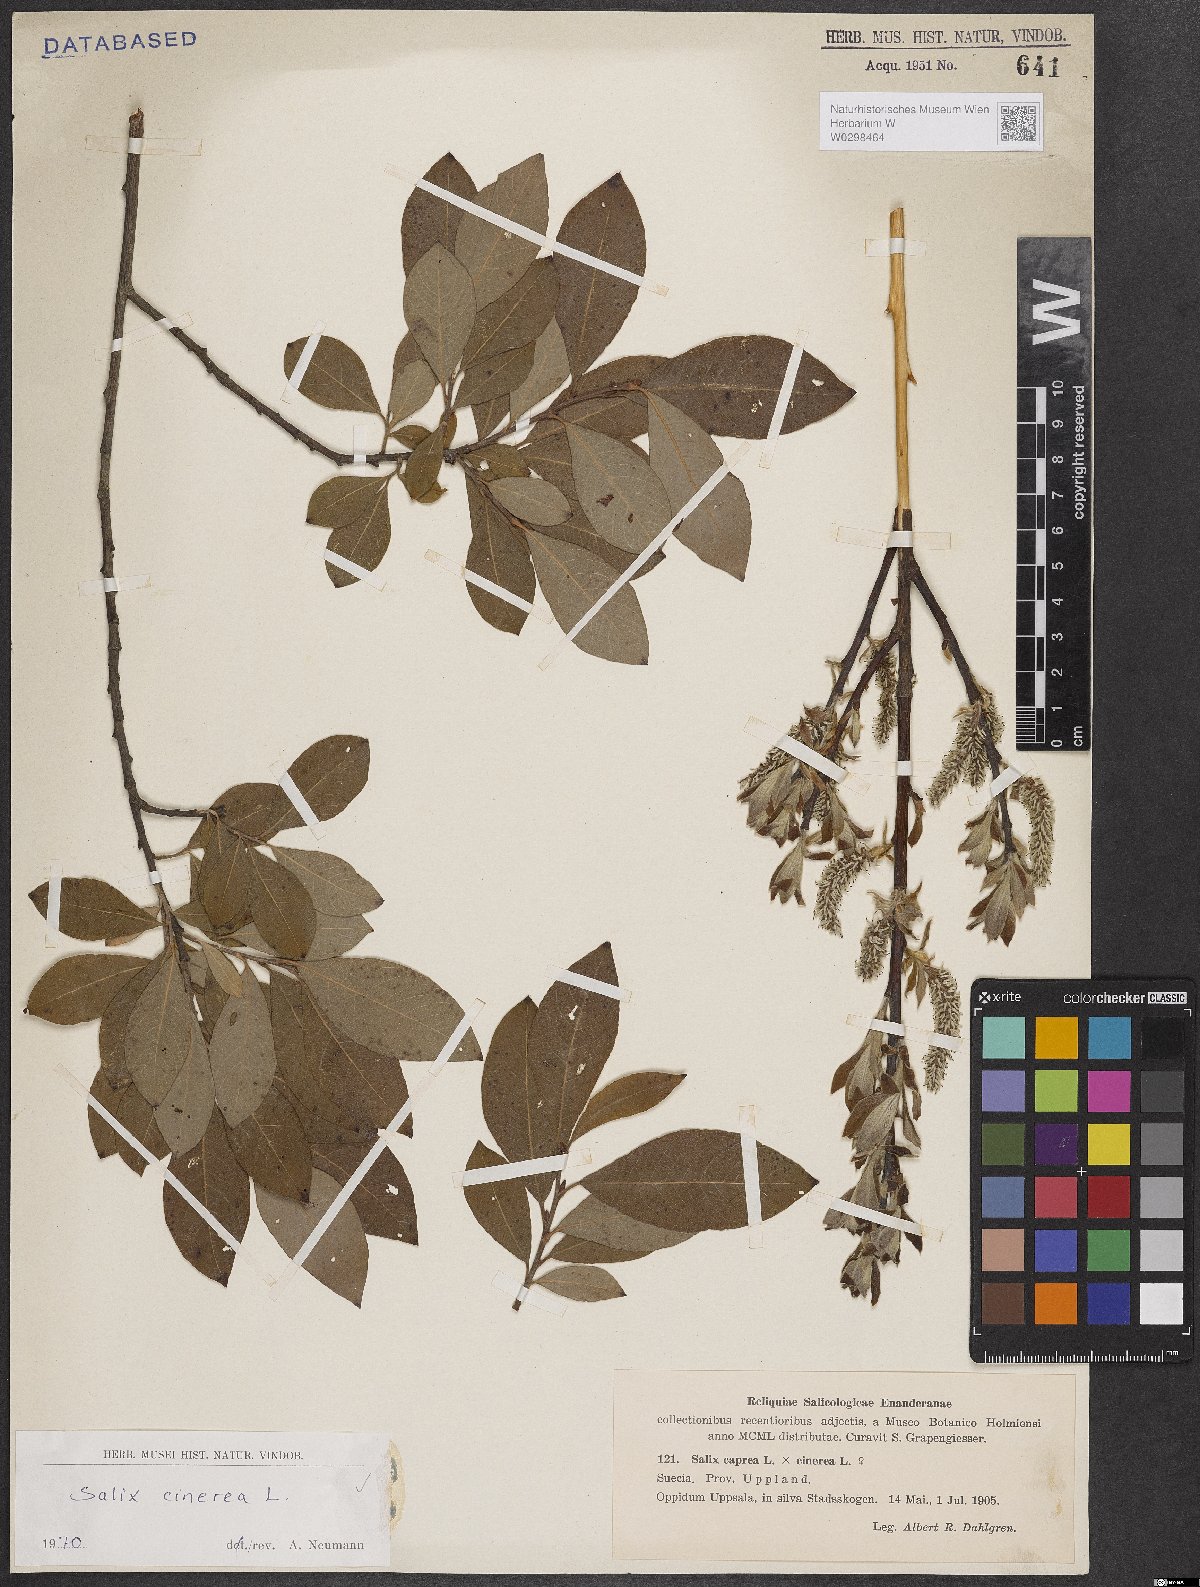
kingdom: Plantae
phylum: Tracheophyta
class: Magnoliopsida
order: Malpighiales
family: Salicaceae
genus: Salix
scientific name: Salix cinerea
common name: Common sallow
